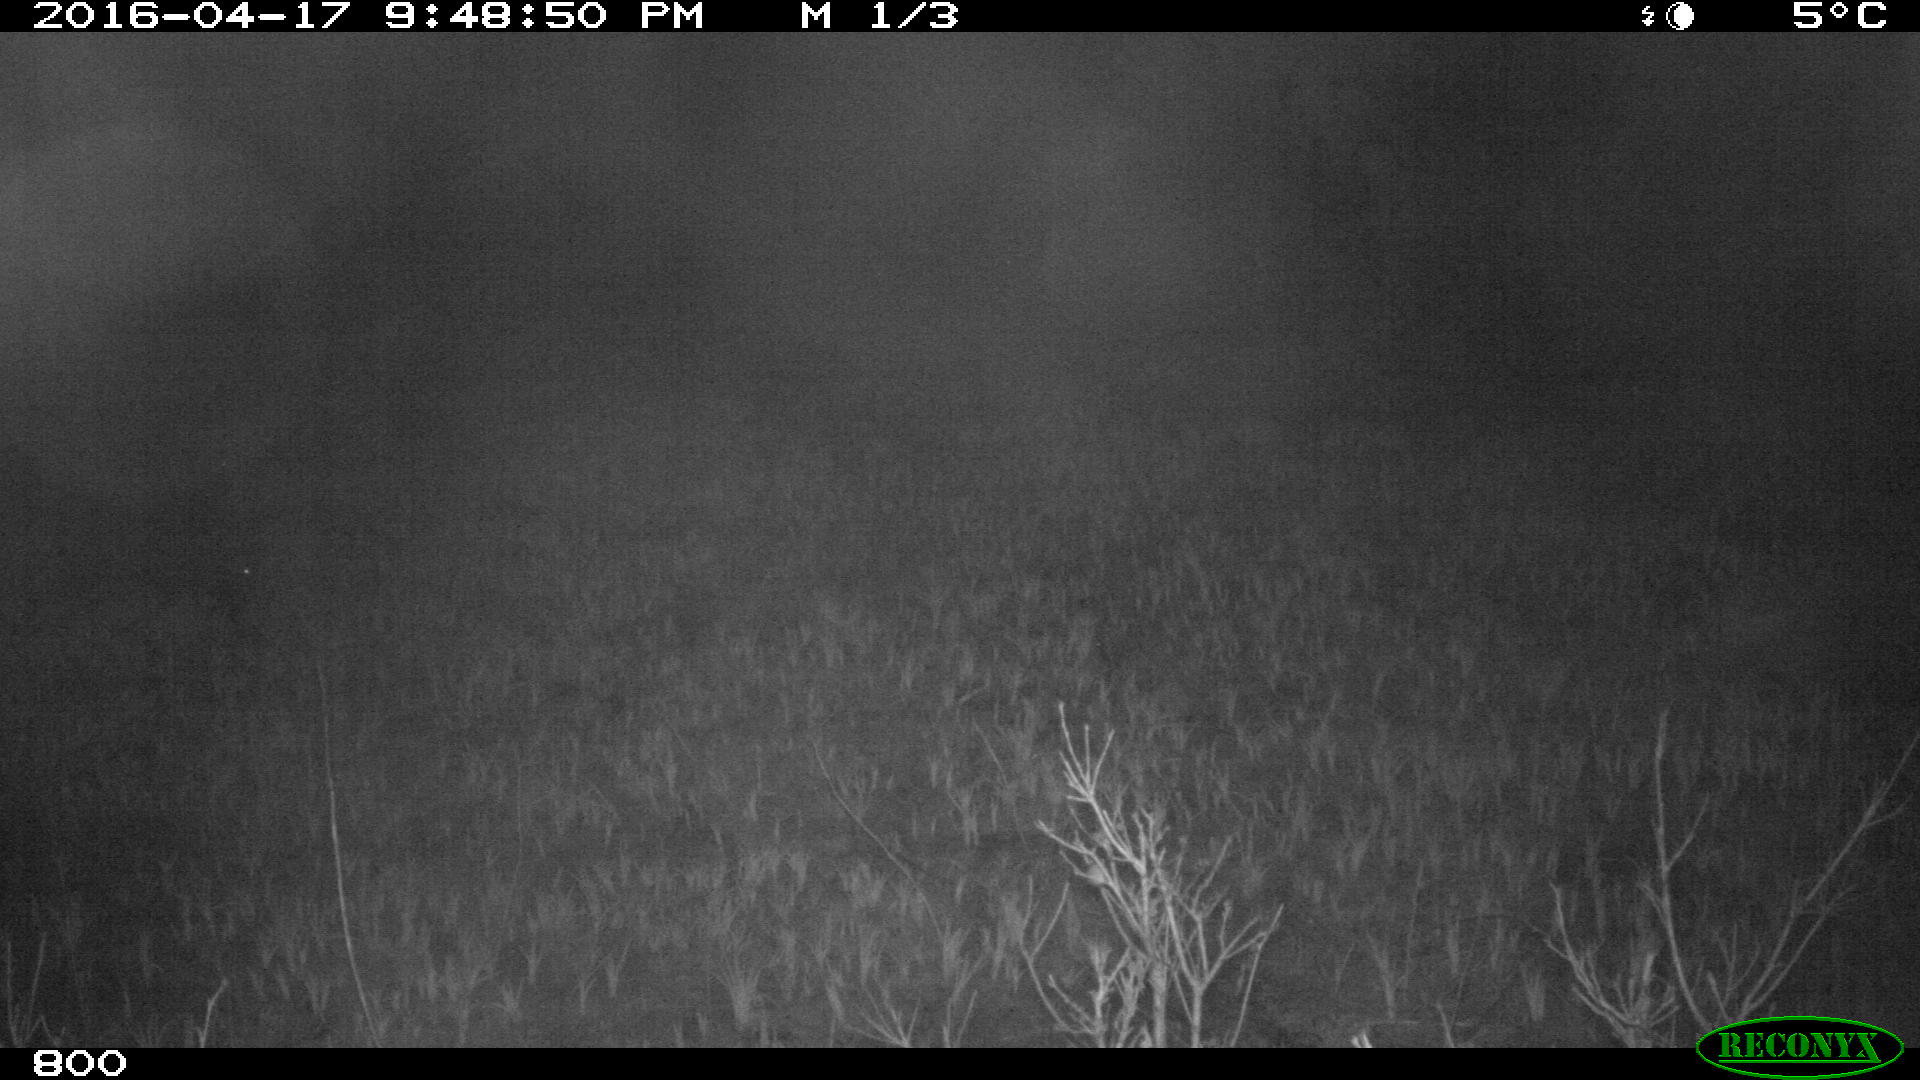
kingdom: Animalia
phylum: Chordata
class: Mammalia
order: Artiodactyla
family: Suidae
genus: Sus
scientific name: Sus scrofa
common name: Wild boar
